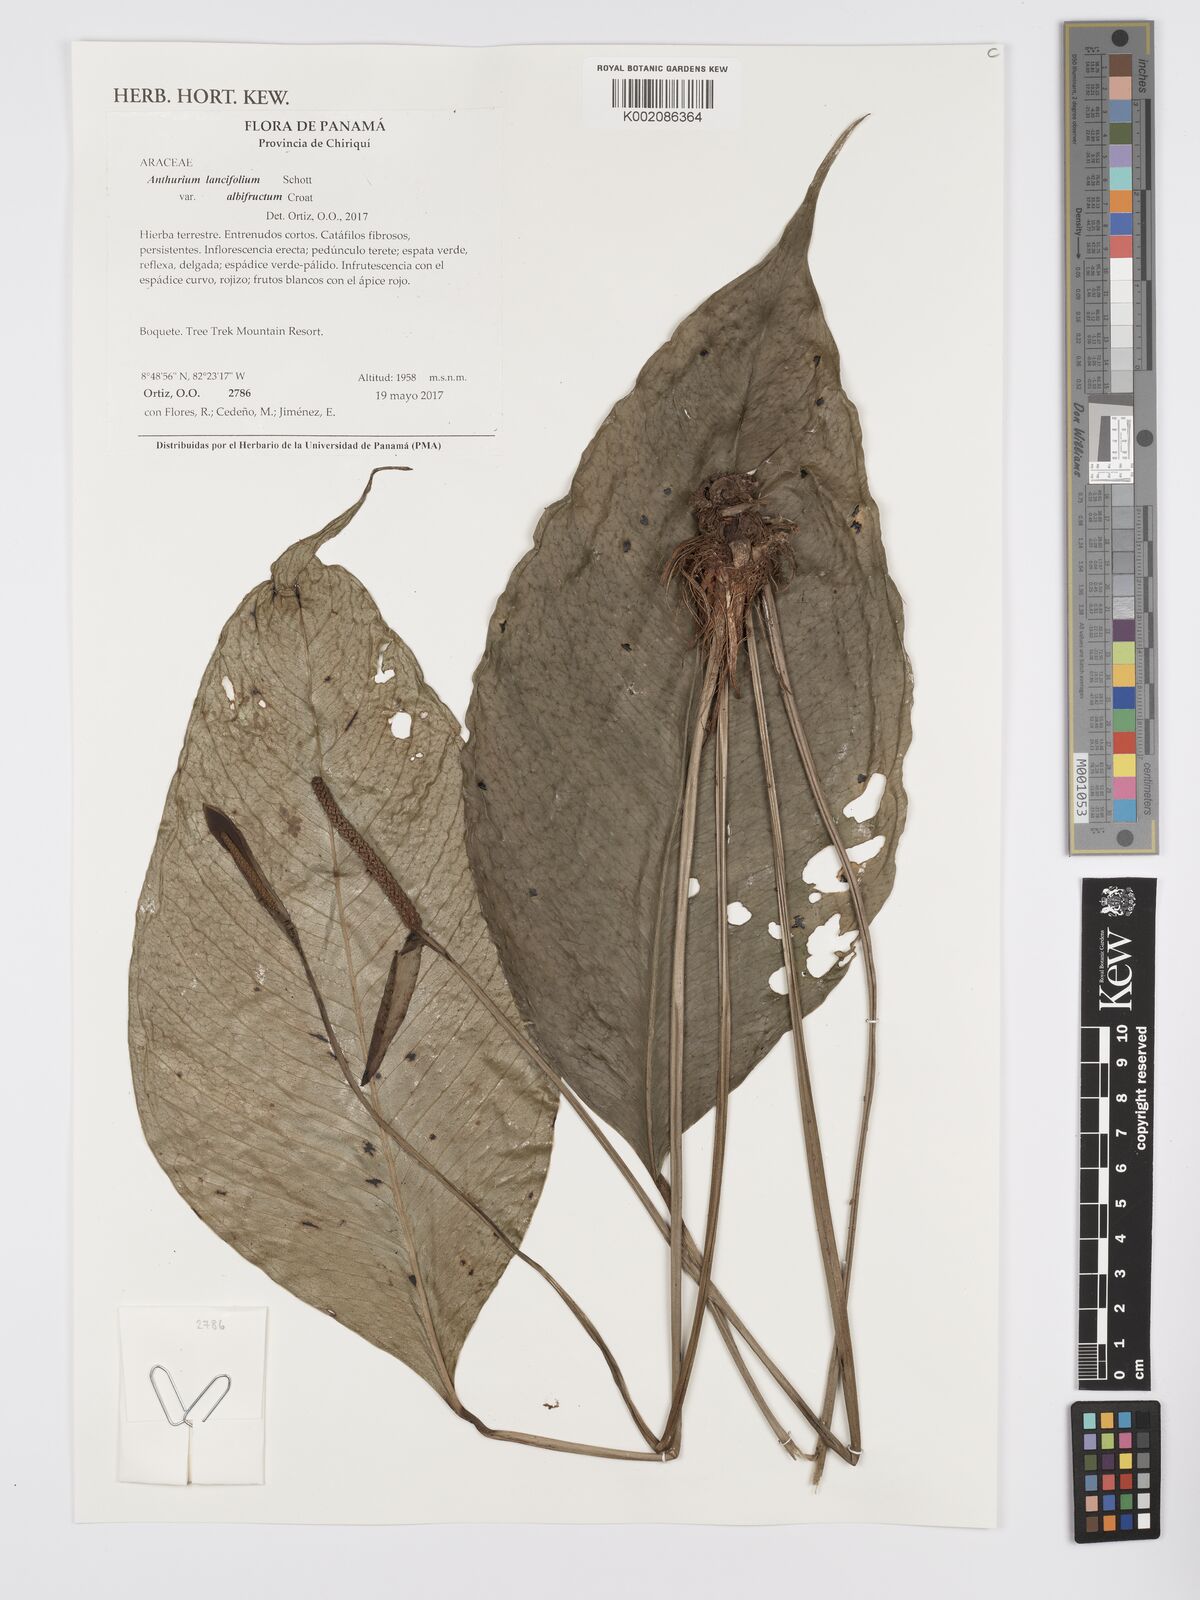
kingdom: Plantae
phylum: Tracheophyta
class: Liliopsida
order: Alismatales
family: Araceae
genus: Anthurium
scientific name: Anthurium lancifolium
